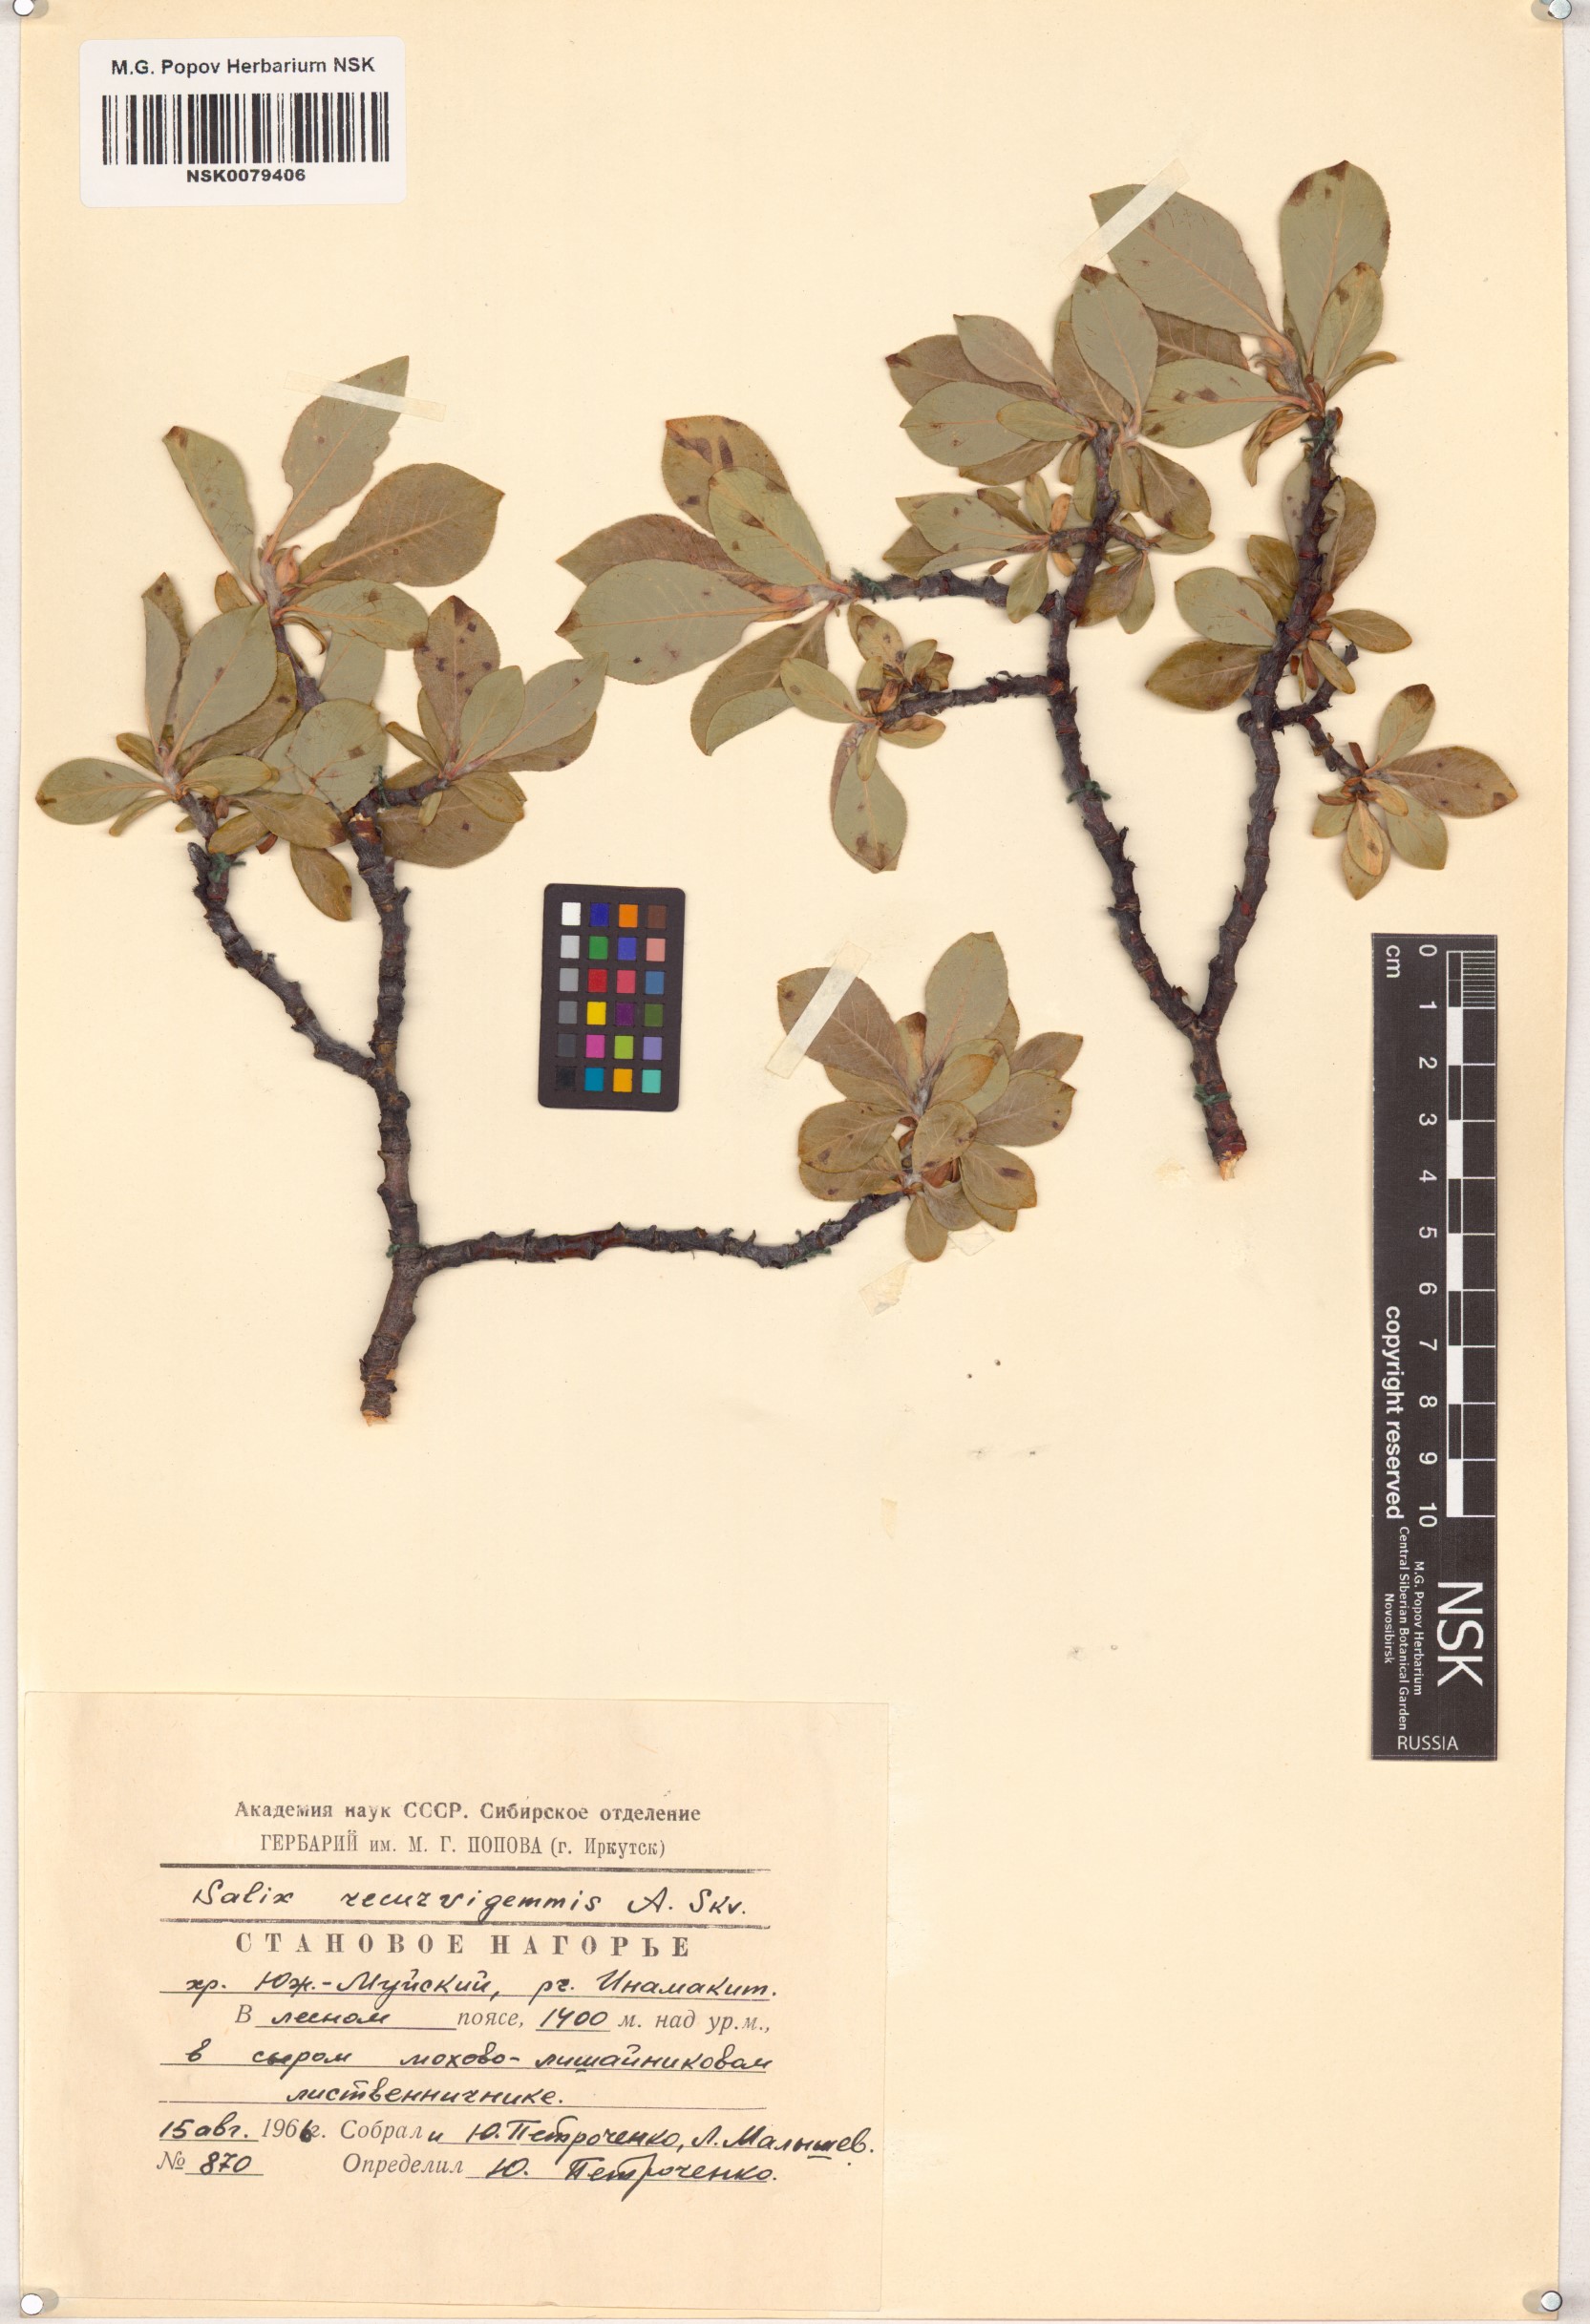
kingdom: Plantae
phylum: Tracheophyta
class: Magnoliopsida
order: Malpighiales
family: Salicaceae
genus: Salix
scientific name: Salix recurvigemmata
